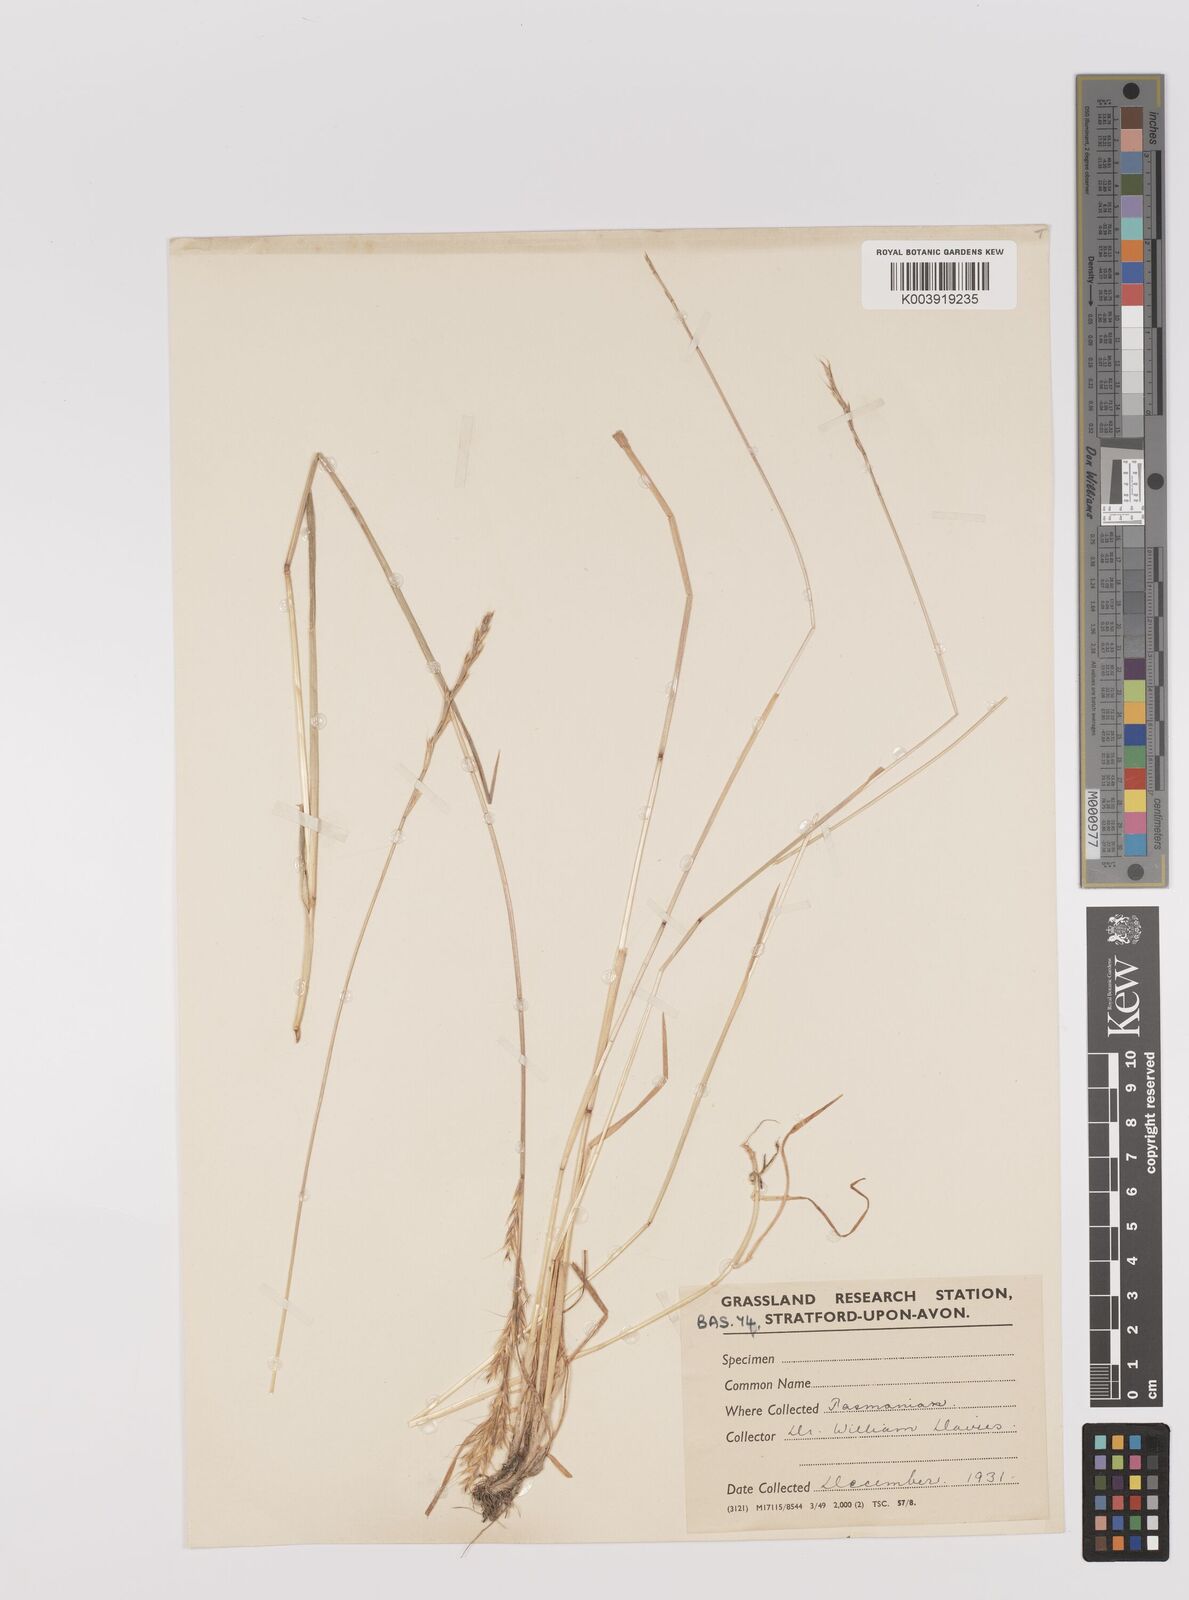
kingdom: Plantae
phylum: Tracheophyta
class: Liliopsida
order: Poales
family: Poaceae
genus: Gaudinia
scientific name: Gaudinia fragilis
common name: French oat-grass
